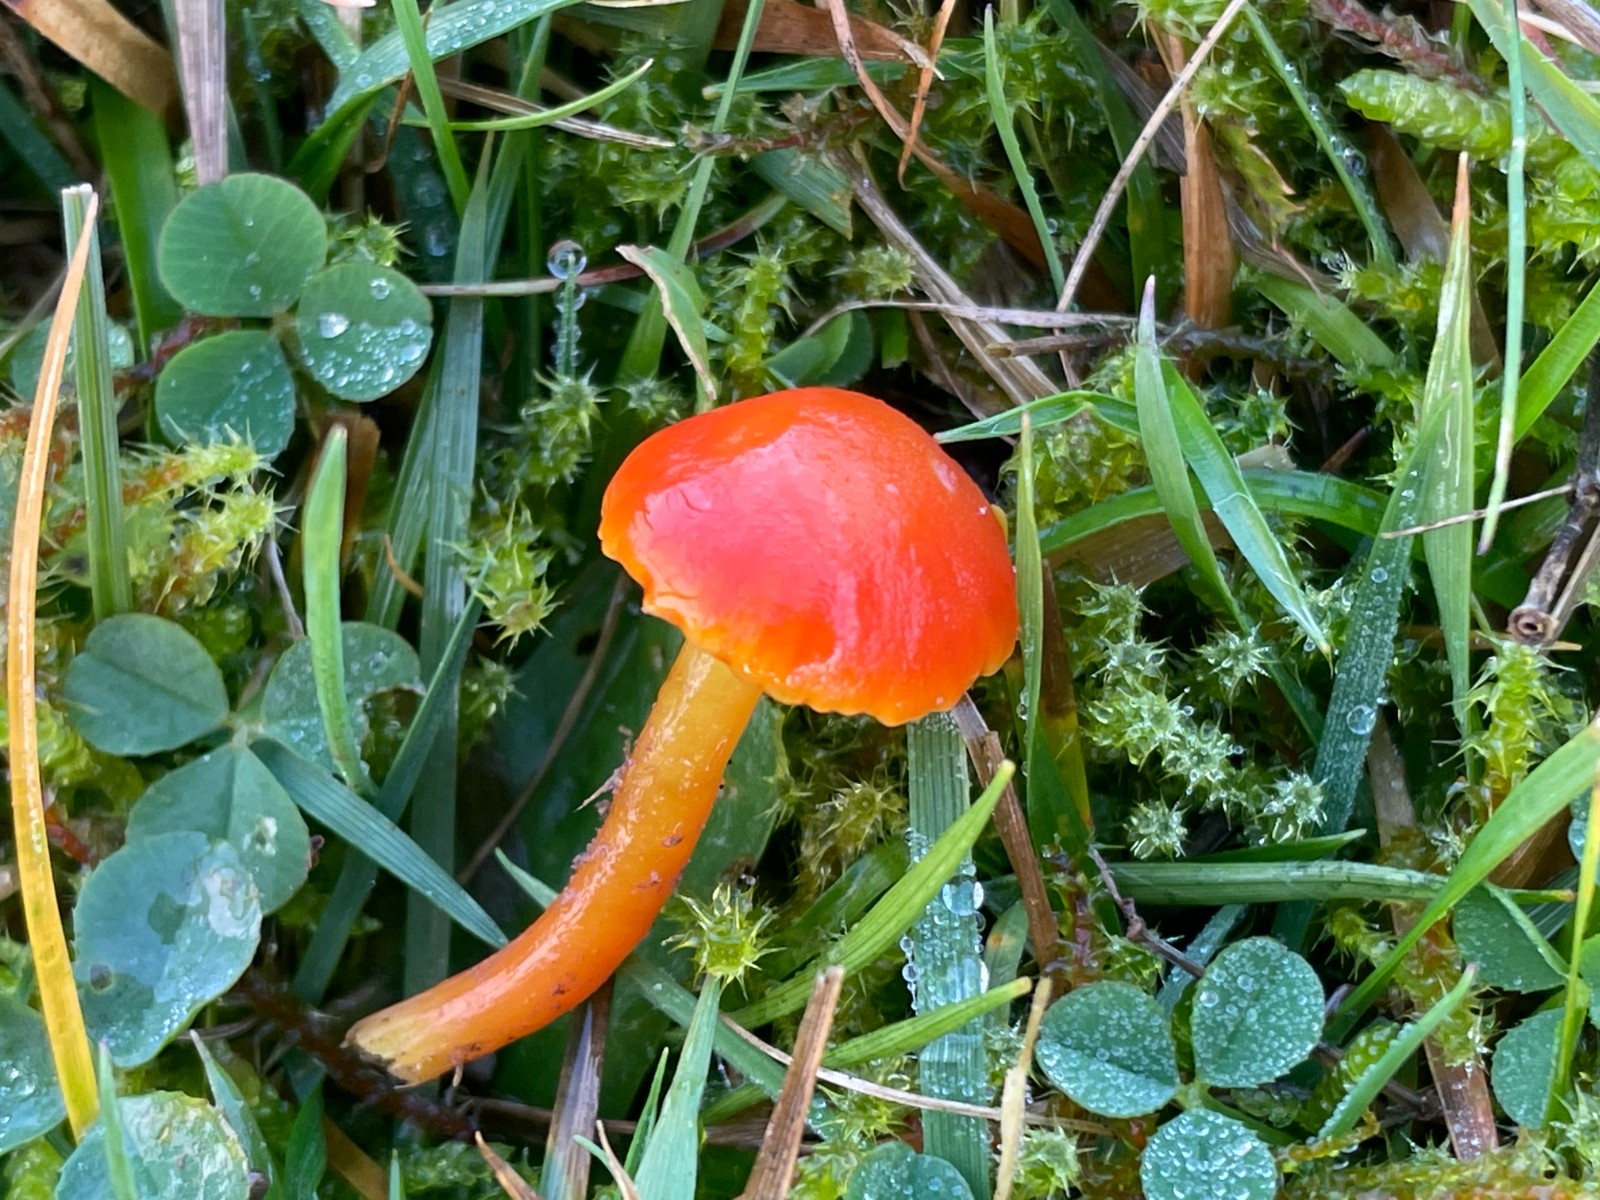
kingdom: Fungi
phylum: Basidiomycota
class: Agaricomycetes
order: Agaricales
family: Hygrophoraceae
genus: Hygrocybe
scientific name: Hygrocybe insipida
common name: liden vokshat
